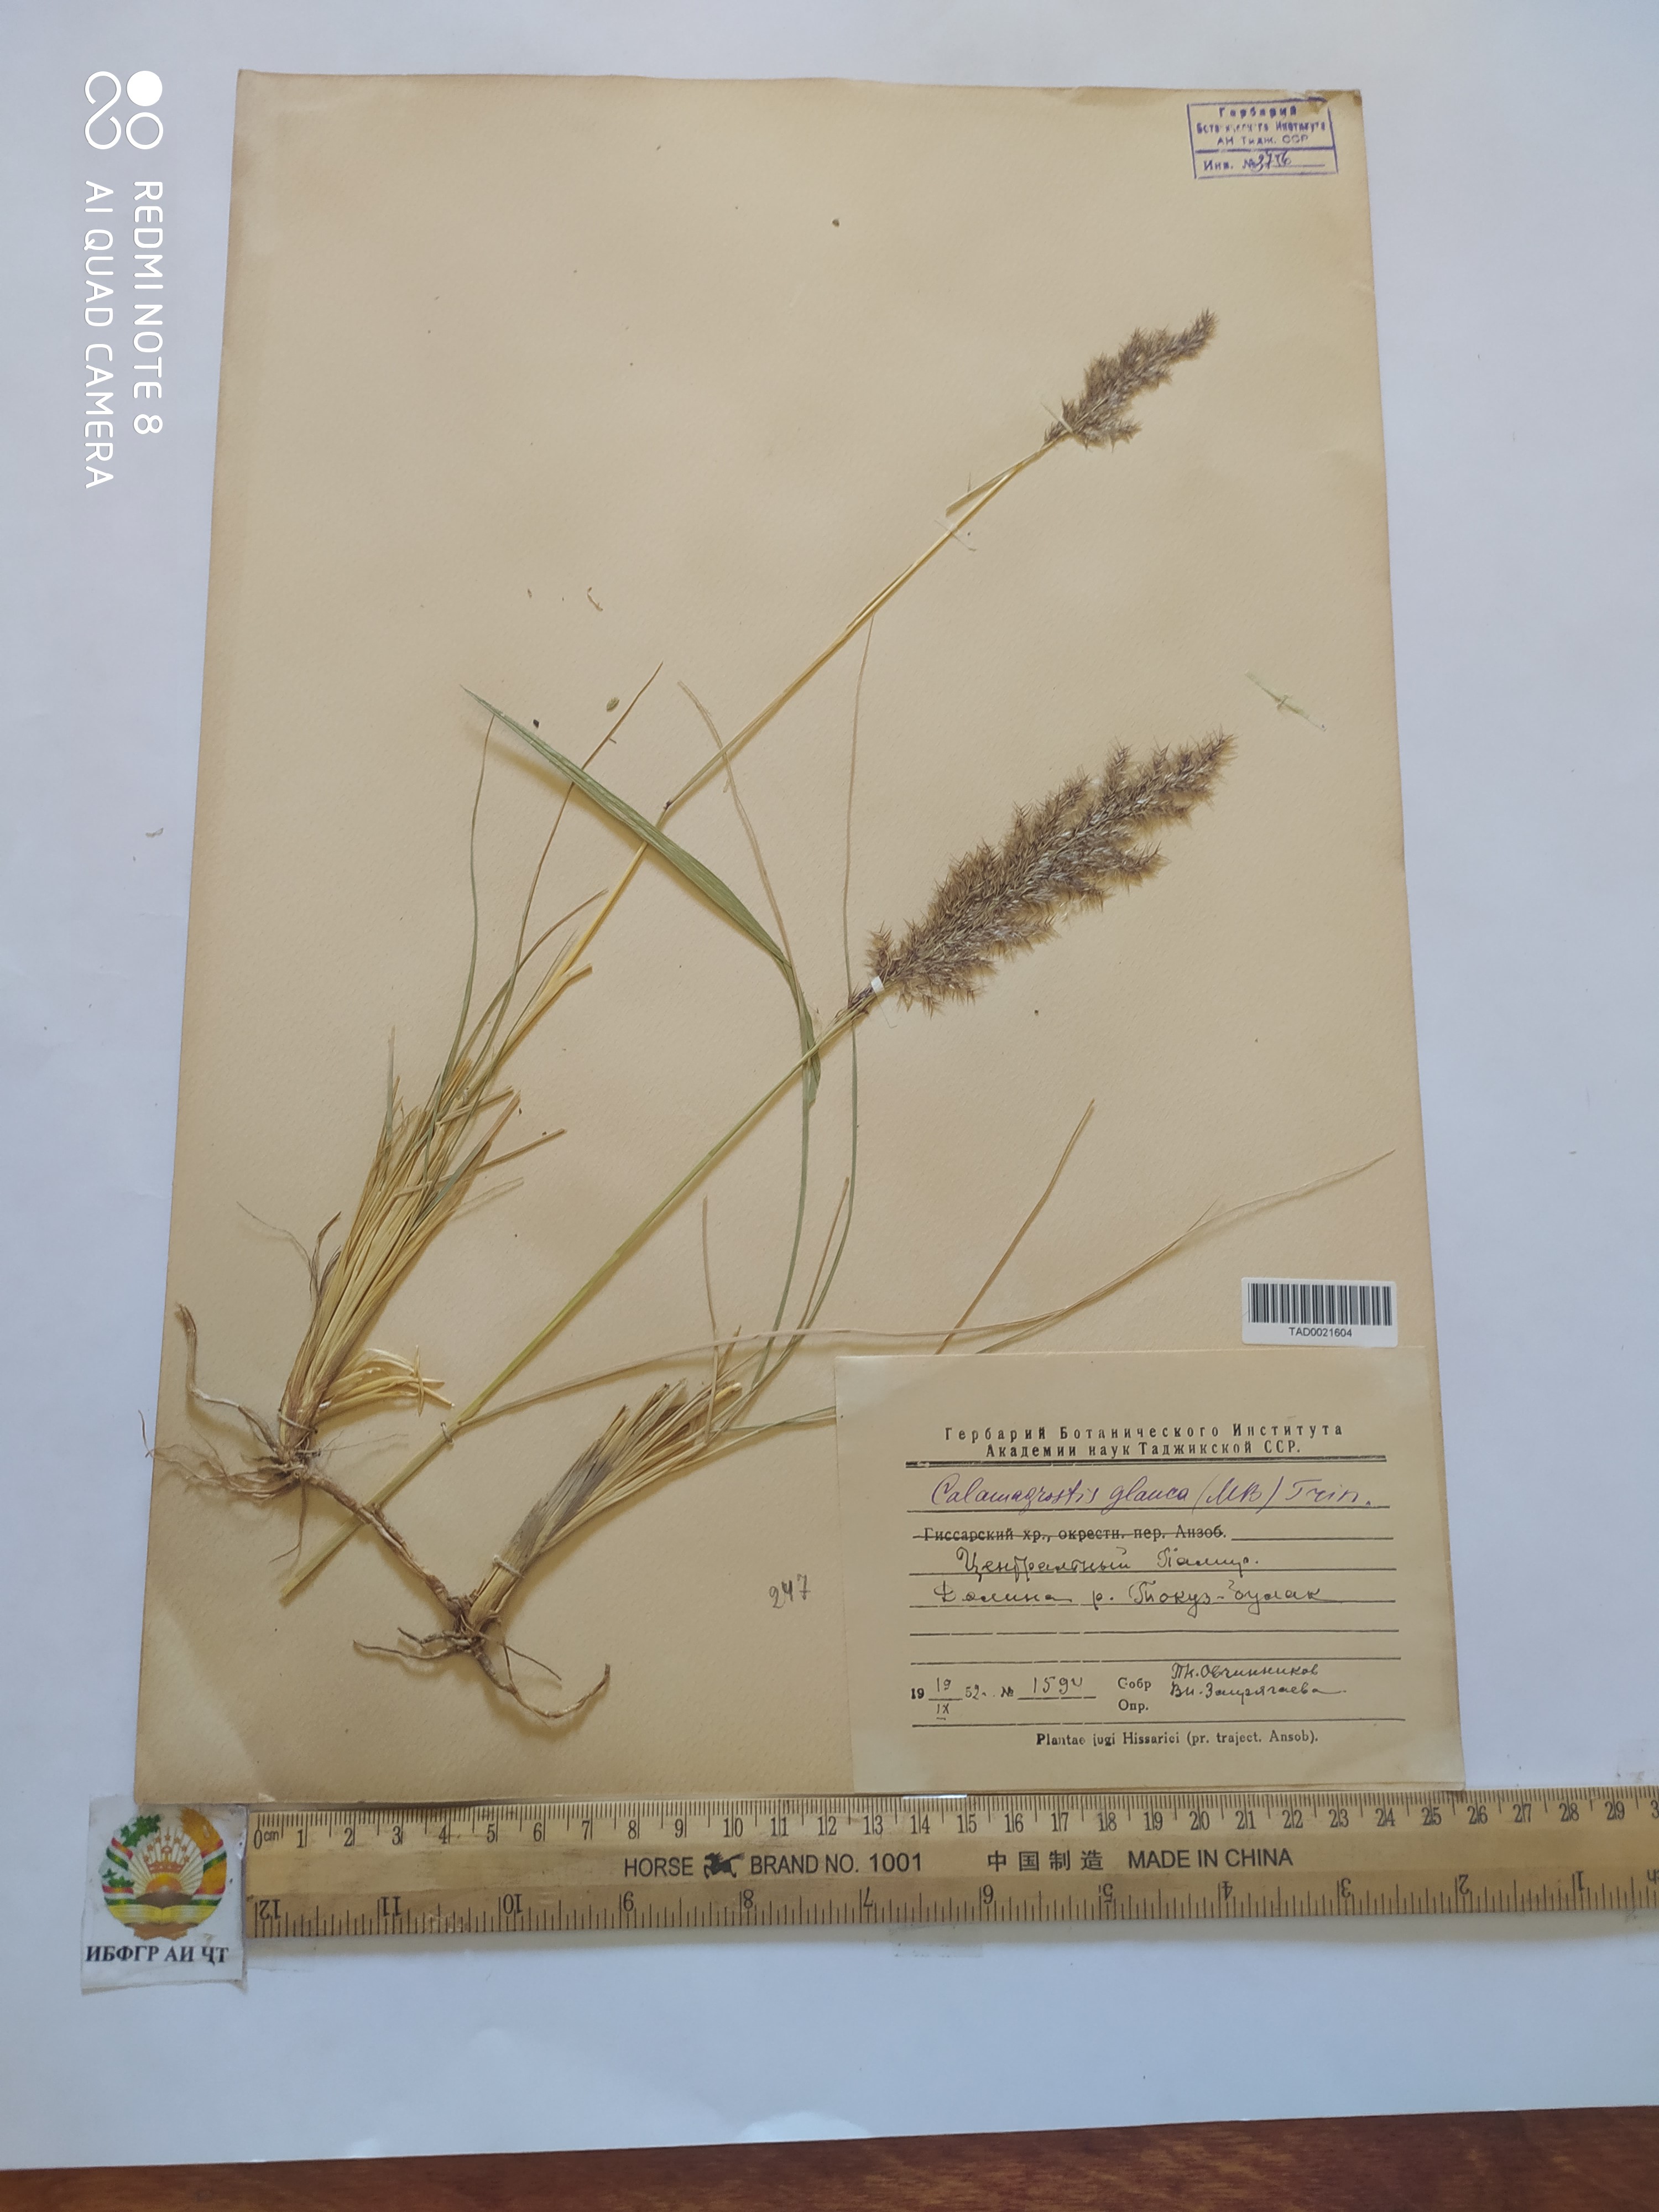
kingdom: Plantae
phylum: Tracheophyta
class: Liliopsida
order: Poales
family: Poaceae
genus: Calamagrostis
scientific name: Calamagrostis pseudophragmites
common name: Coastal small-reed
